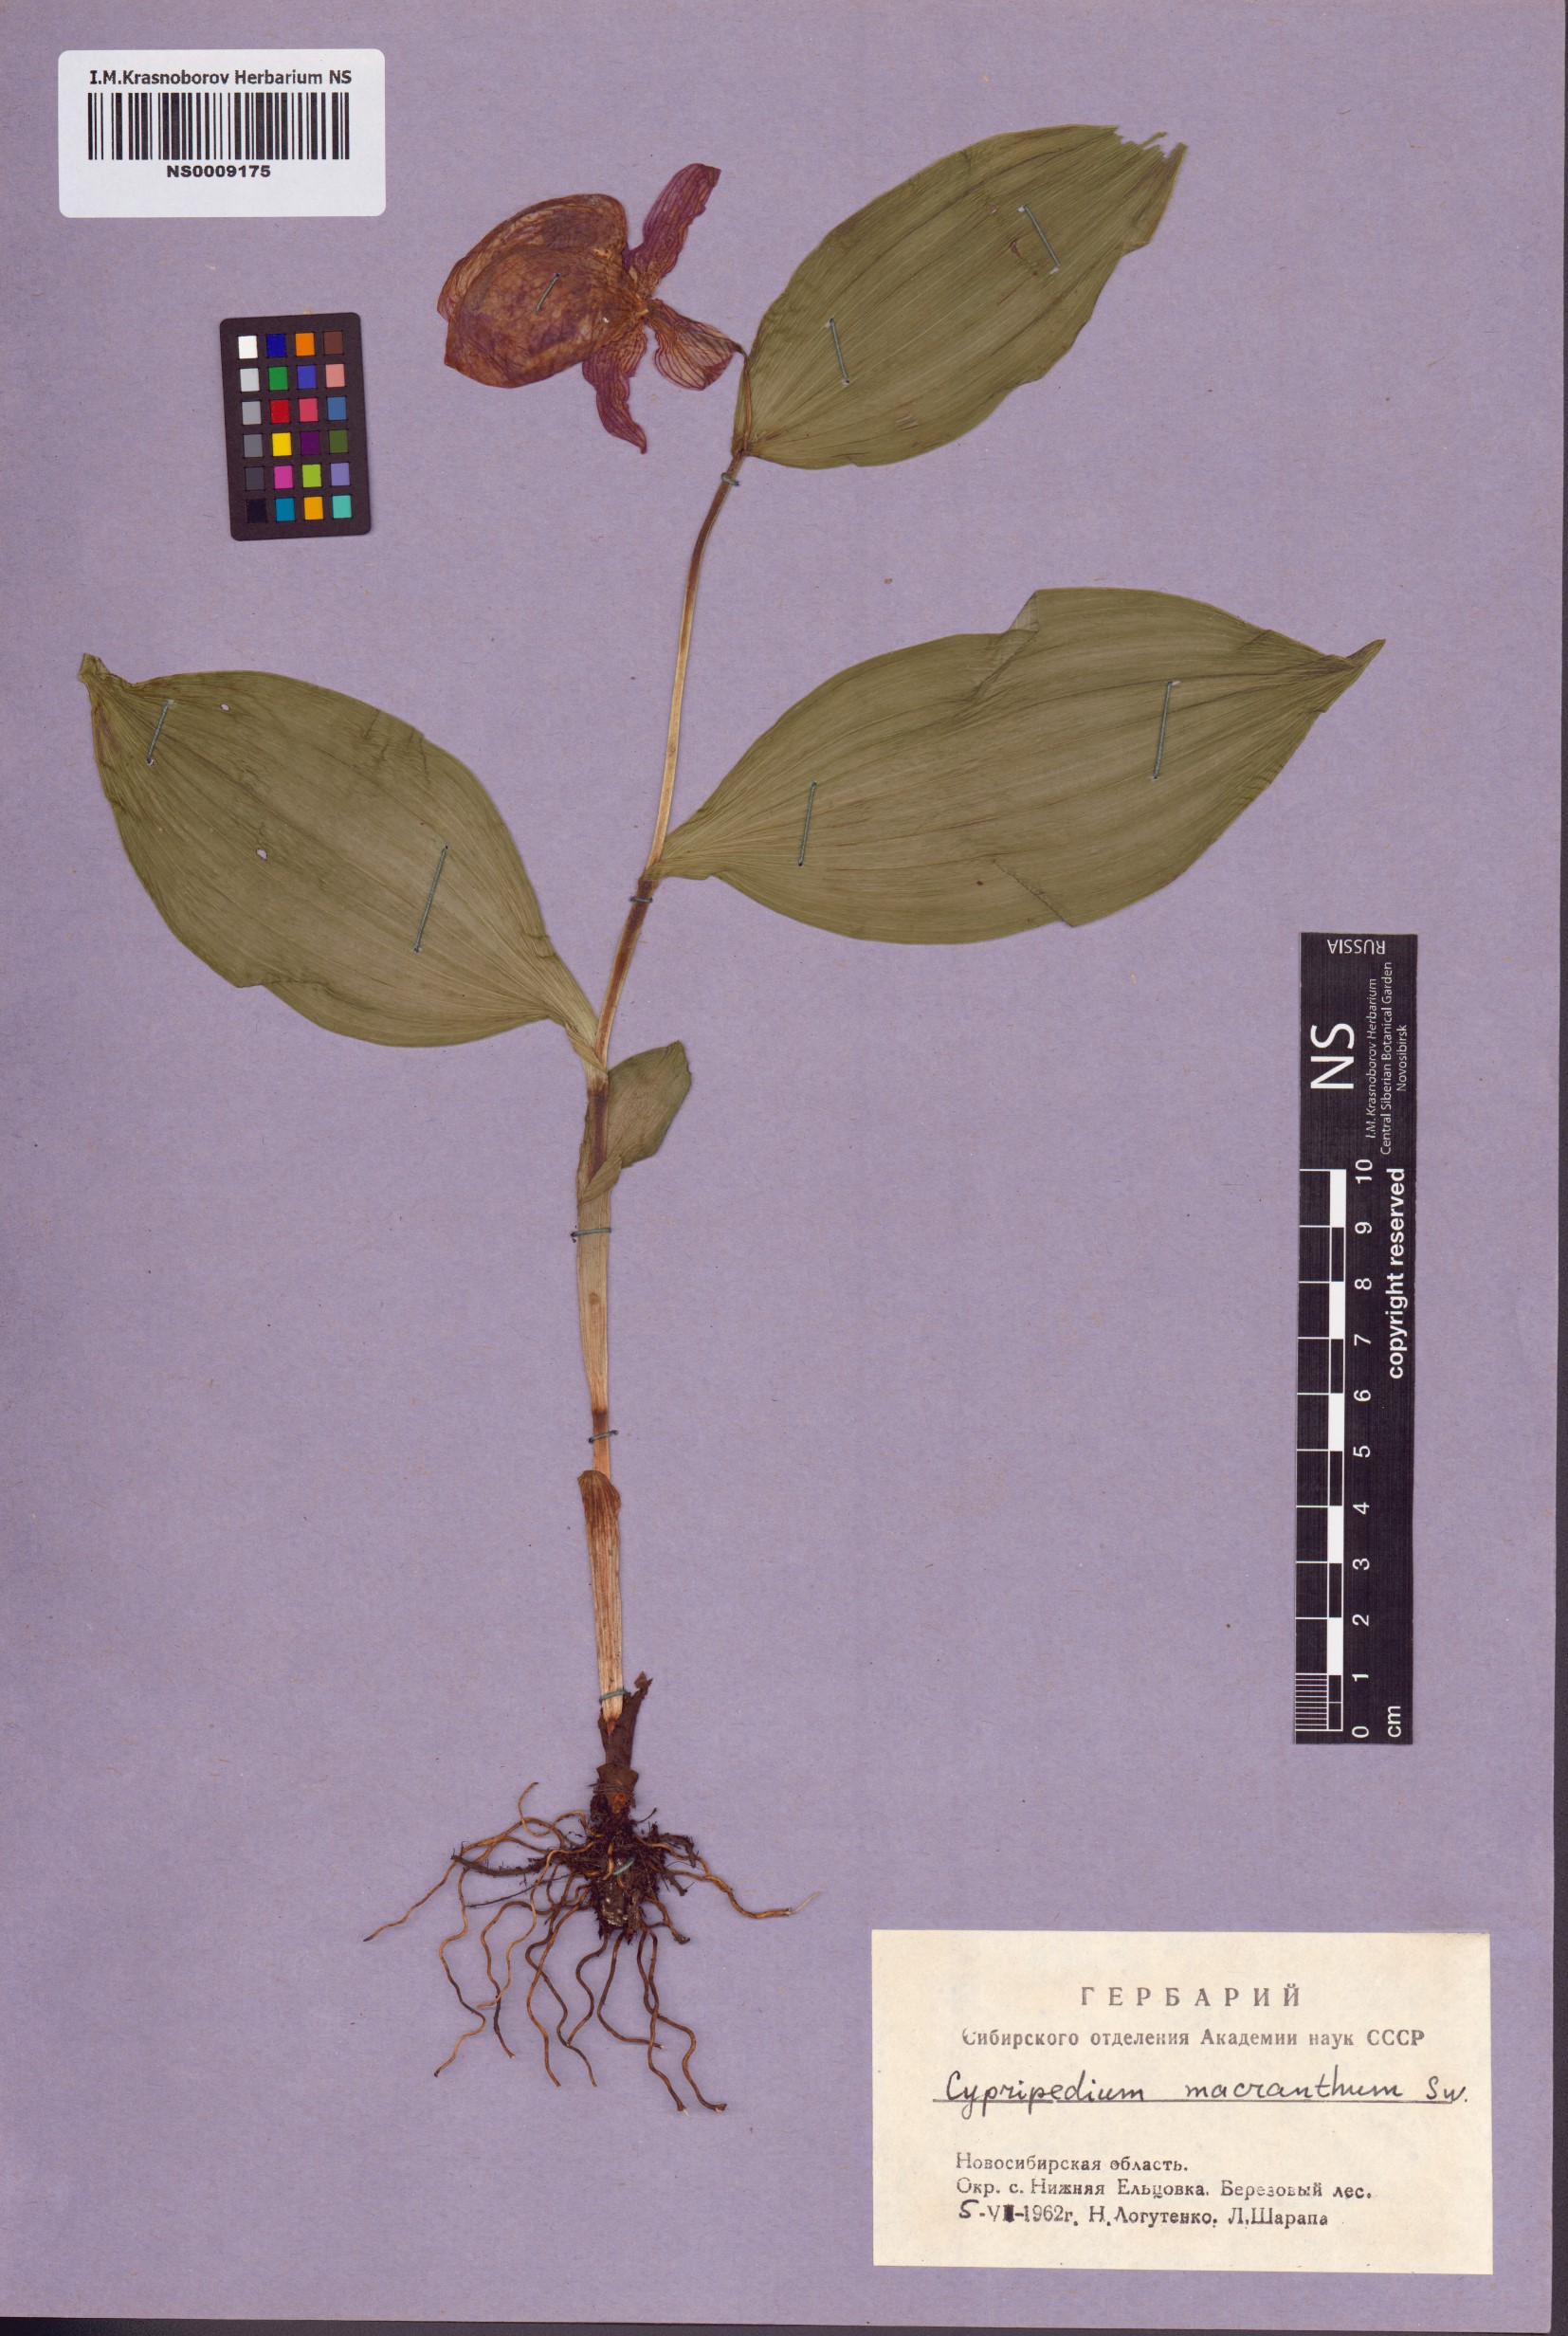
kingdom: Plantae
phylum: Tracheophyta
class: Liliopsida
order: Asparagales
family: Orchidaceae
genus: Cypripedium
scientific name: Cypripedium macranthos
